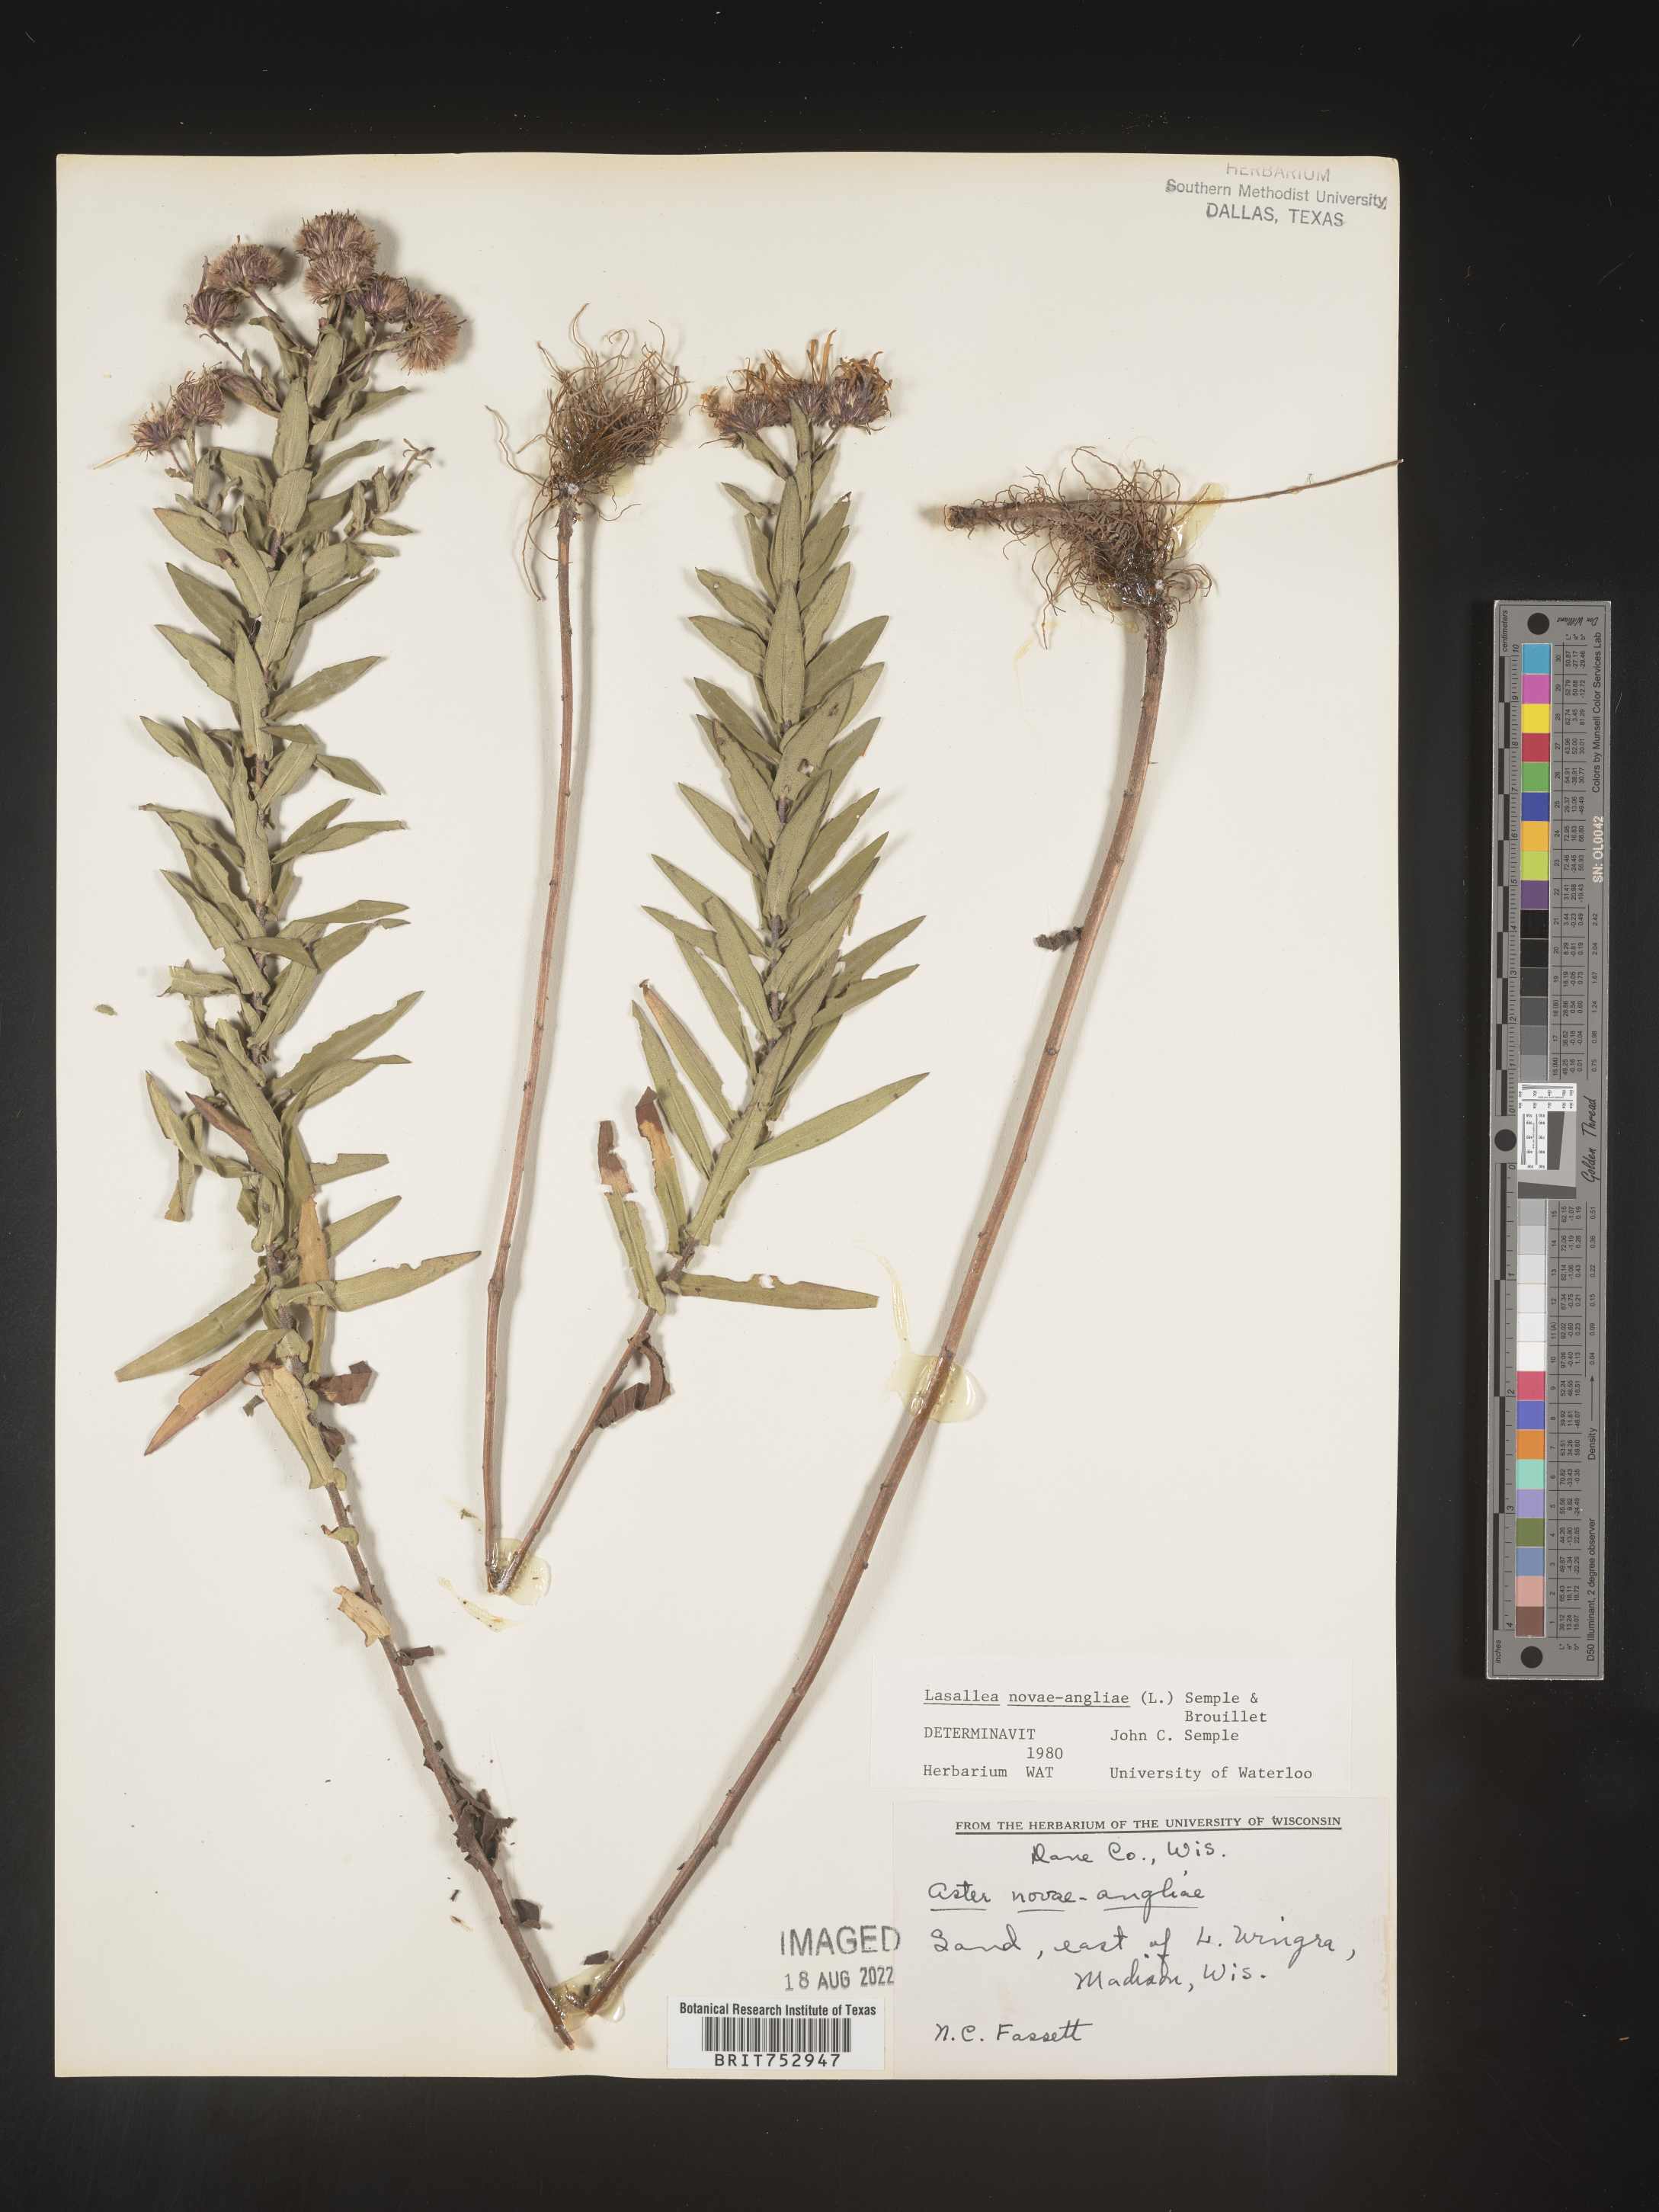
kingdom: Plantae
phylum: Tracheophyta
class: Magnoliopsida
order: Asterales
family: Asteraceae
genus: Symphyotrichum
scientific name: Symphyotrichum novae-angliae
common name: Michaelmas daisy
